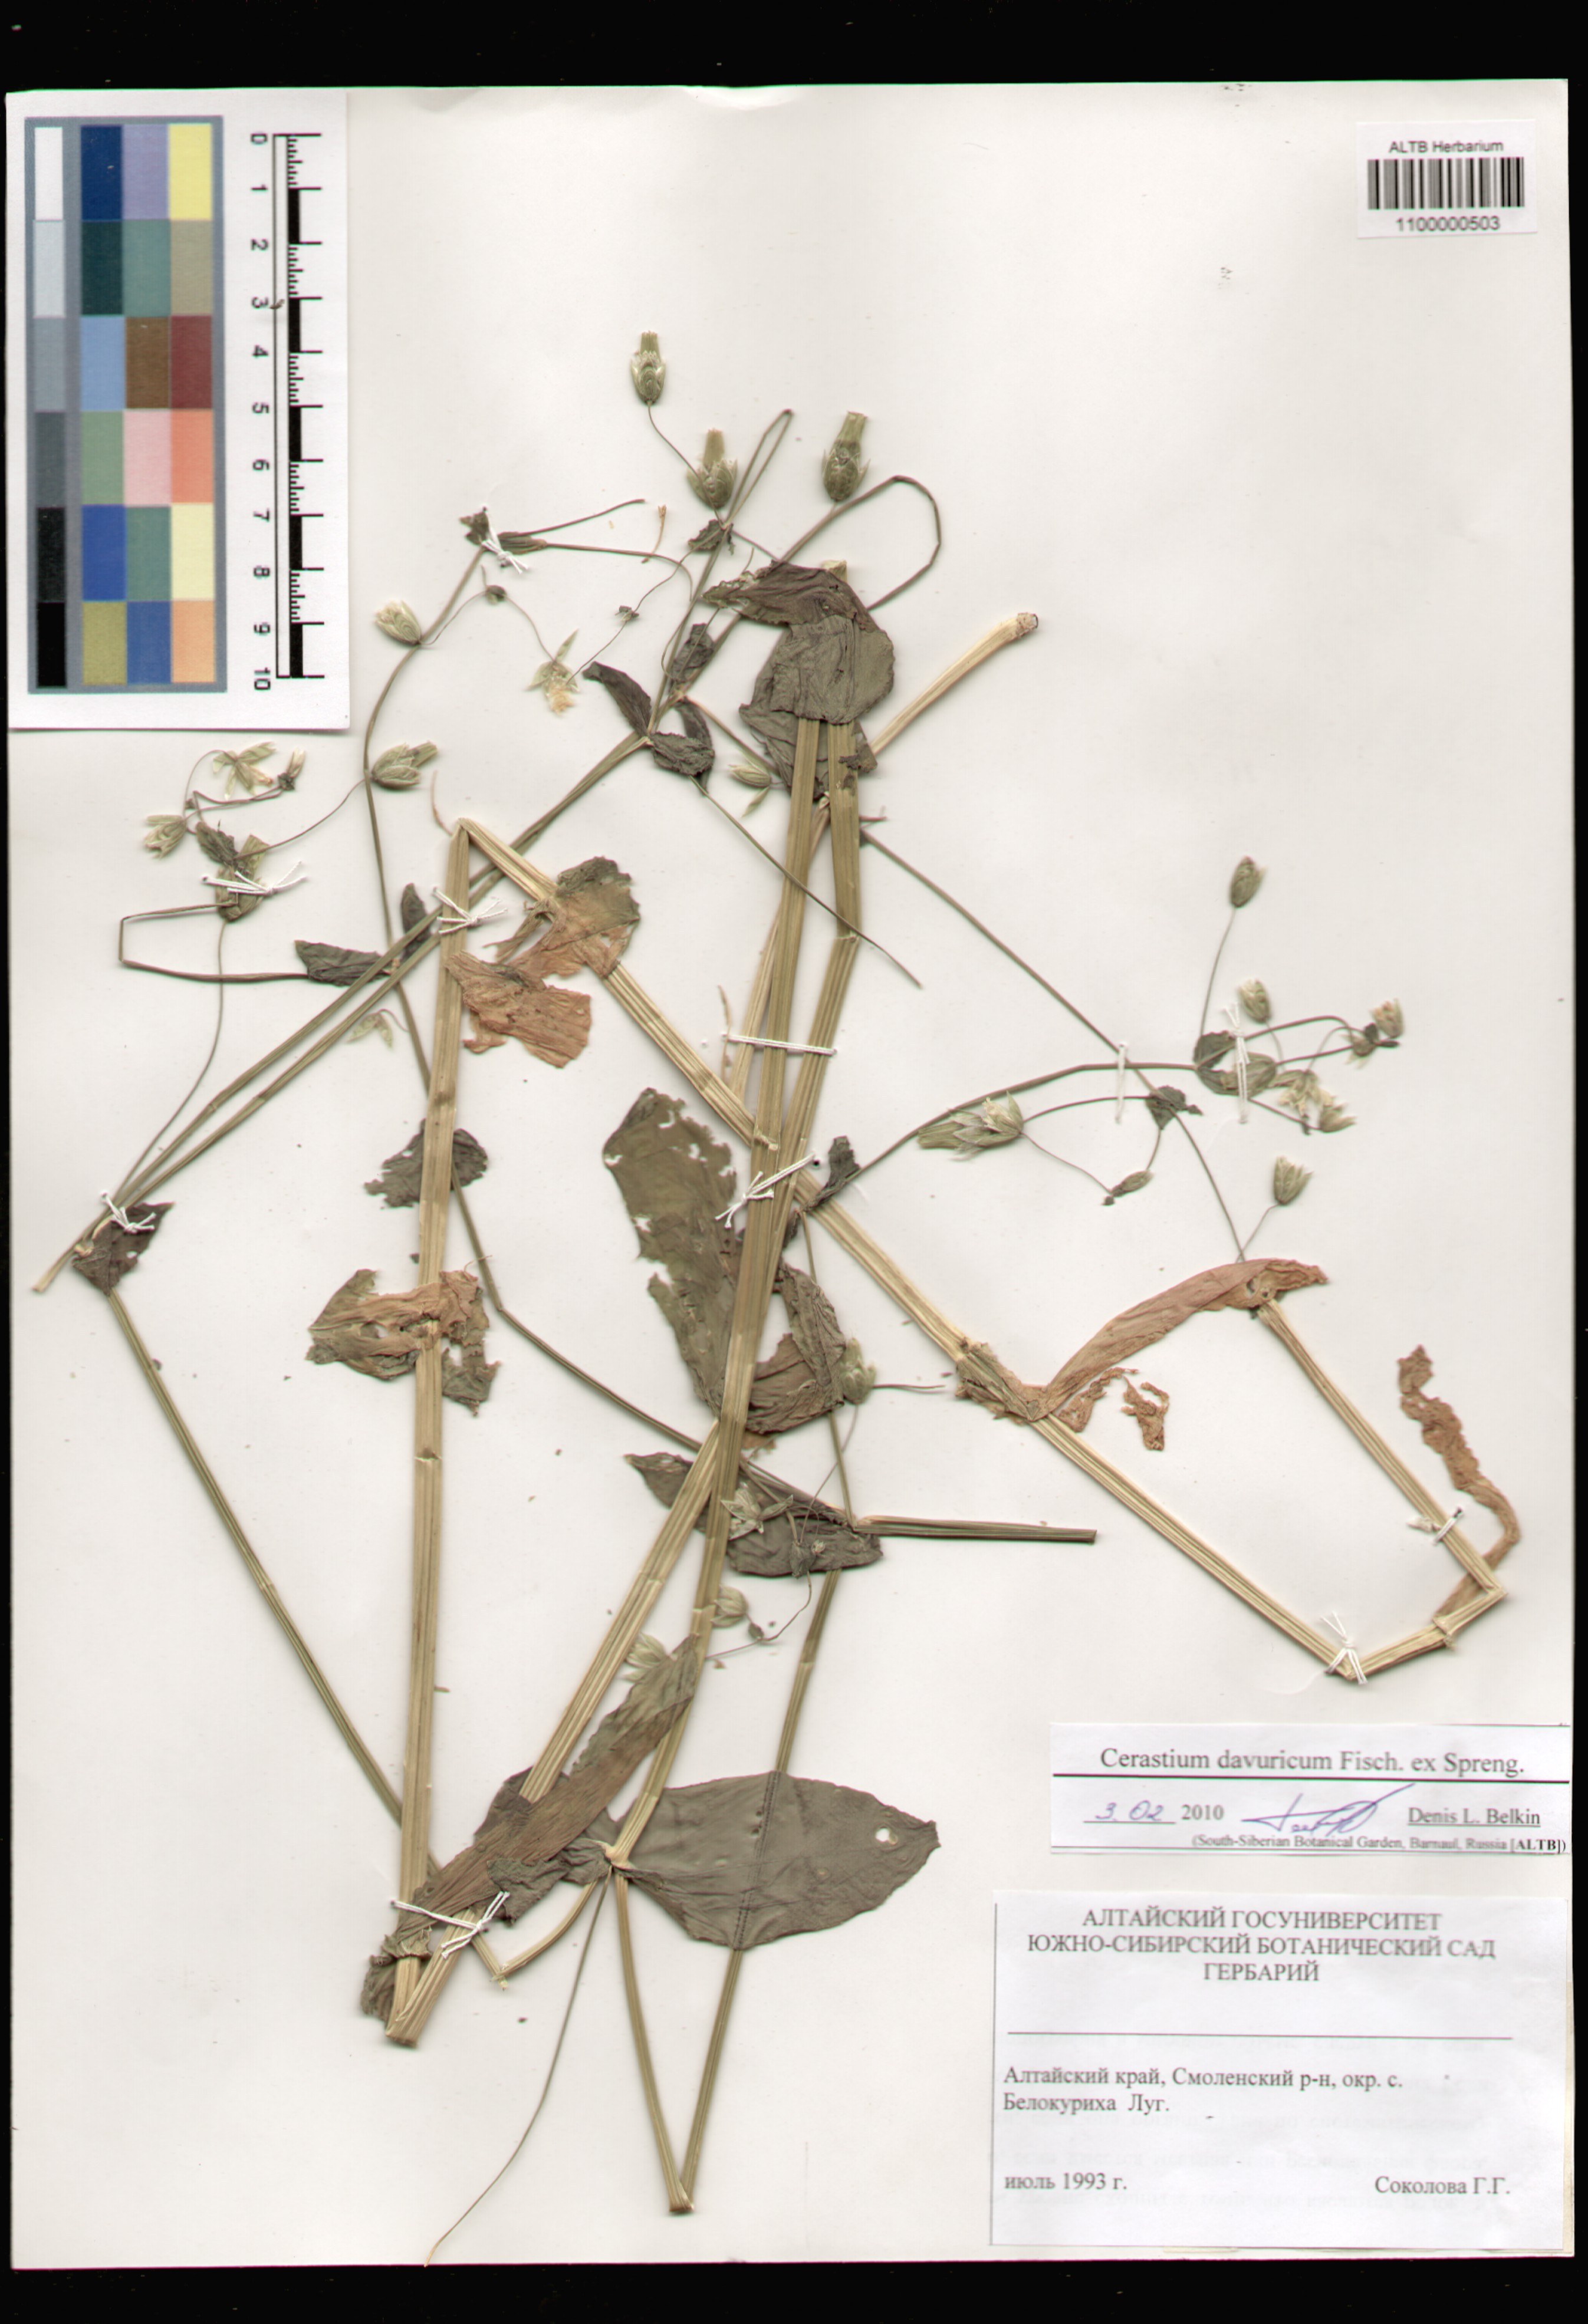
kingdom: Plantae
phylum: Tracheophyta
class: Magnoliopsida
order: Caryophyllales
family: Caryophyllaceae
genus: Dichodon
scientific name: Dichodon davuricum
